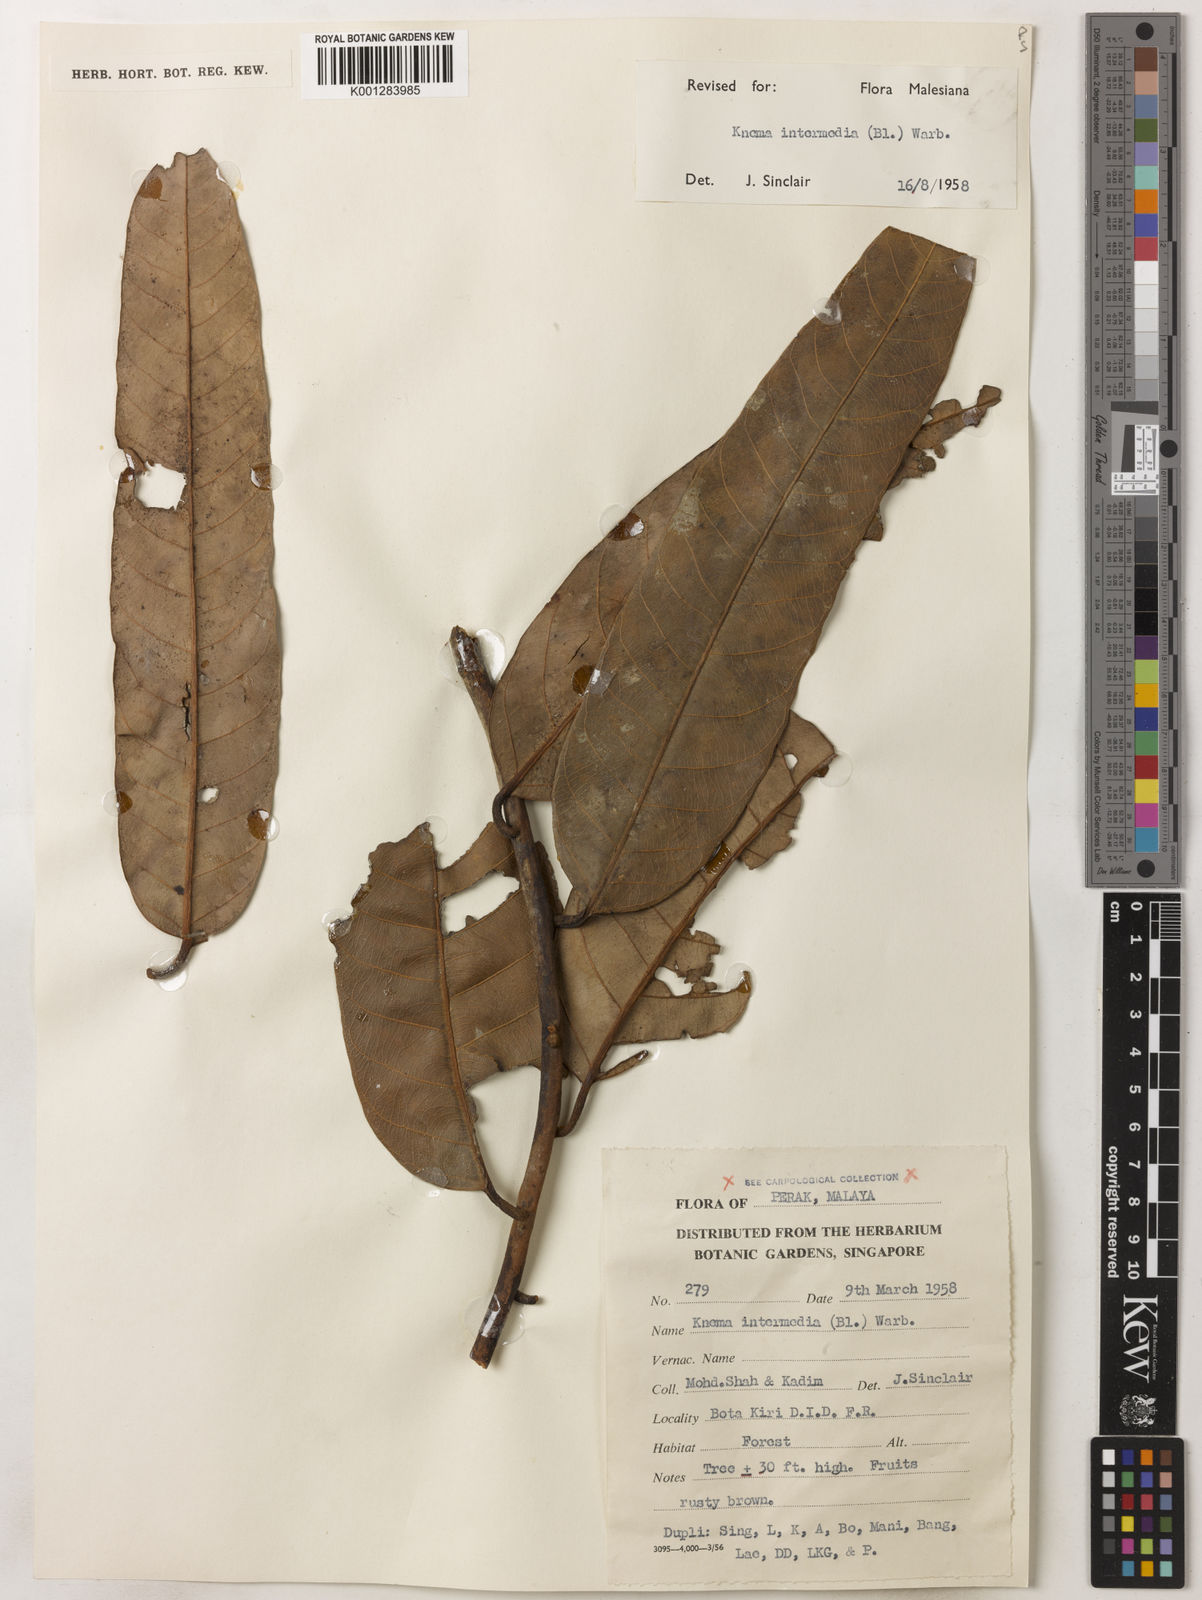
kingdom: Plantae
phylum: Tracheophyta
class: Magnoliopsida
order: Magnoliales
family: Myristicaceae
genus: Knema
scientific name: Knema intermedia
